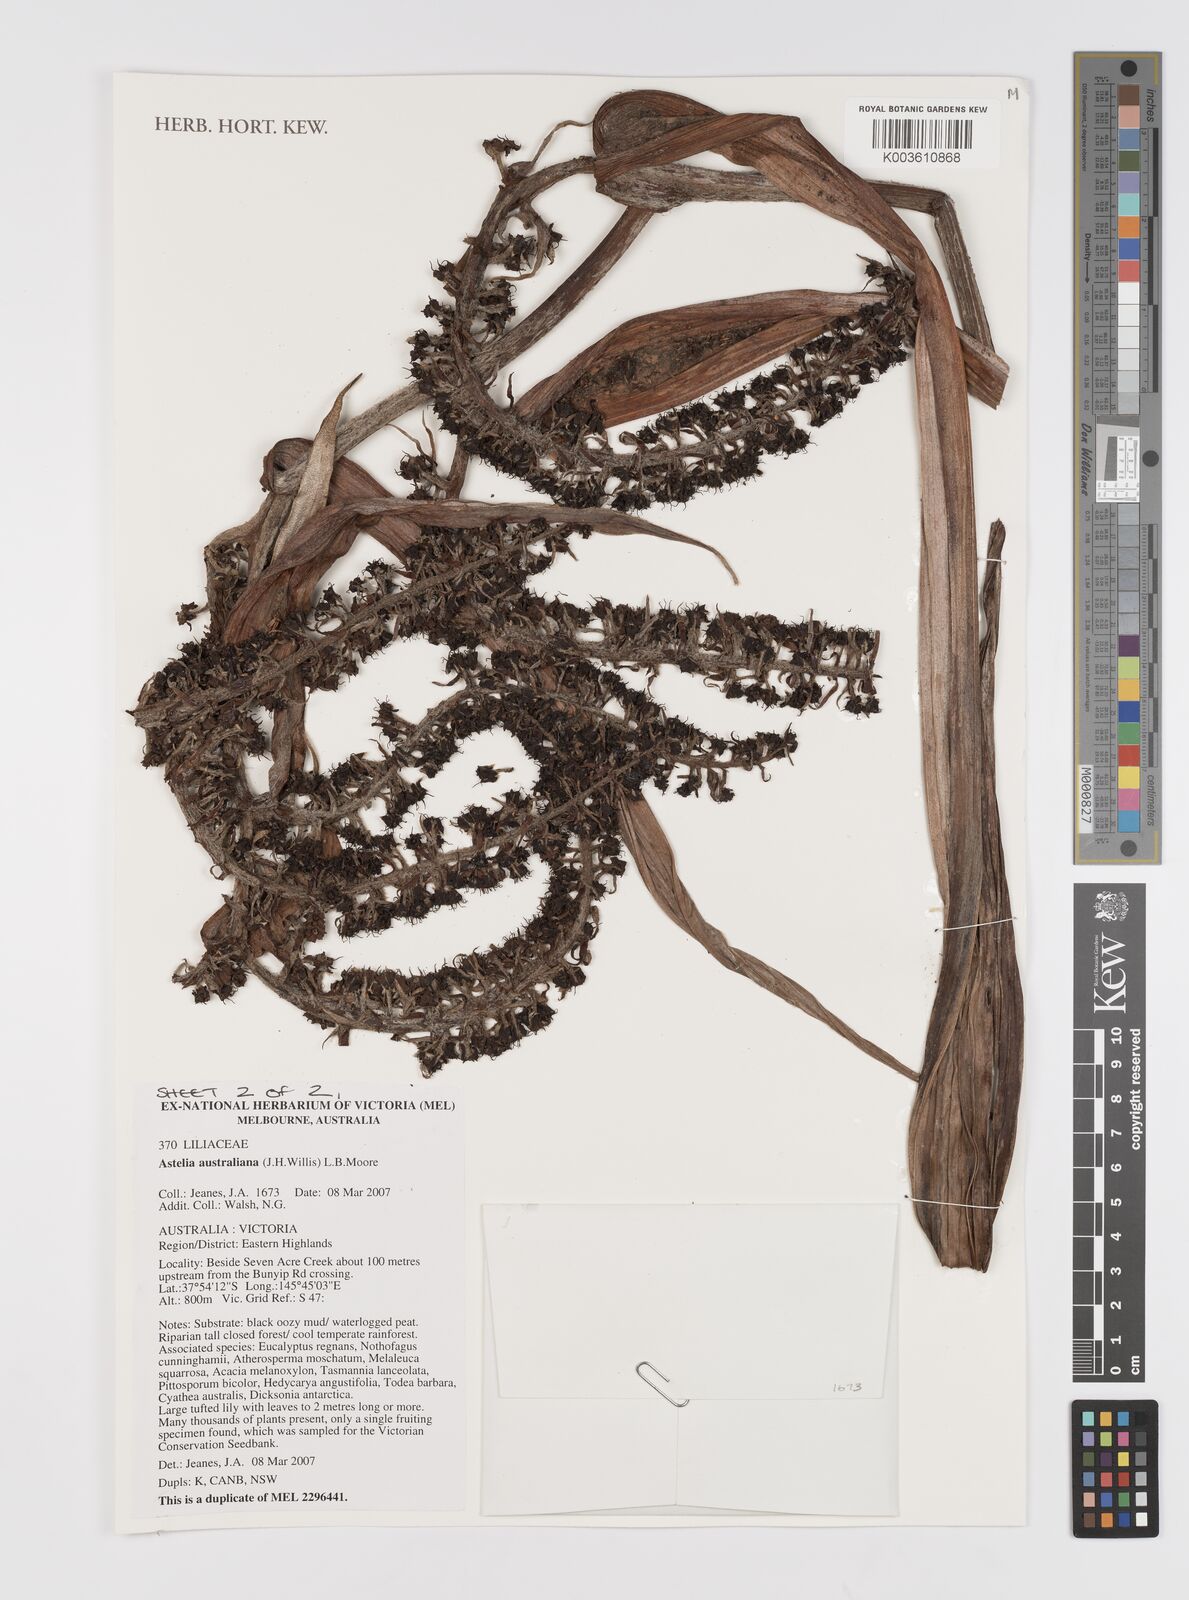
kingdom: Plantae
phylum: Tracheophyta
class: Liliopsida
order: Asparagales
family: Asteliaceae
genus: Astelia
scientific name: Astelia australiana
